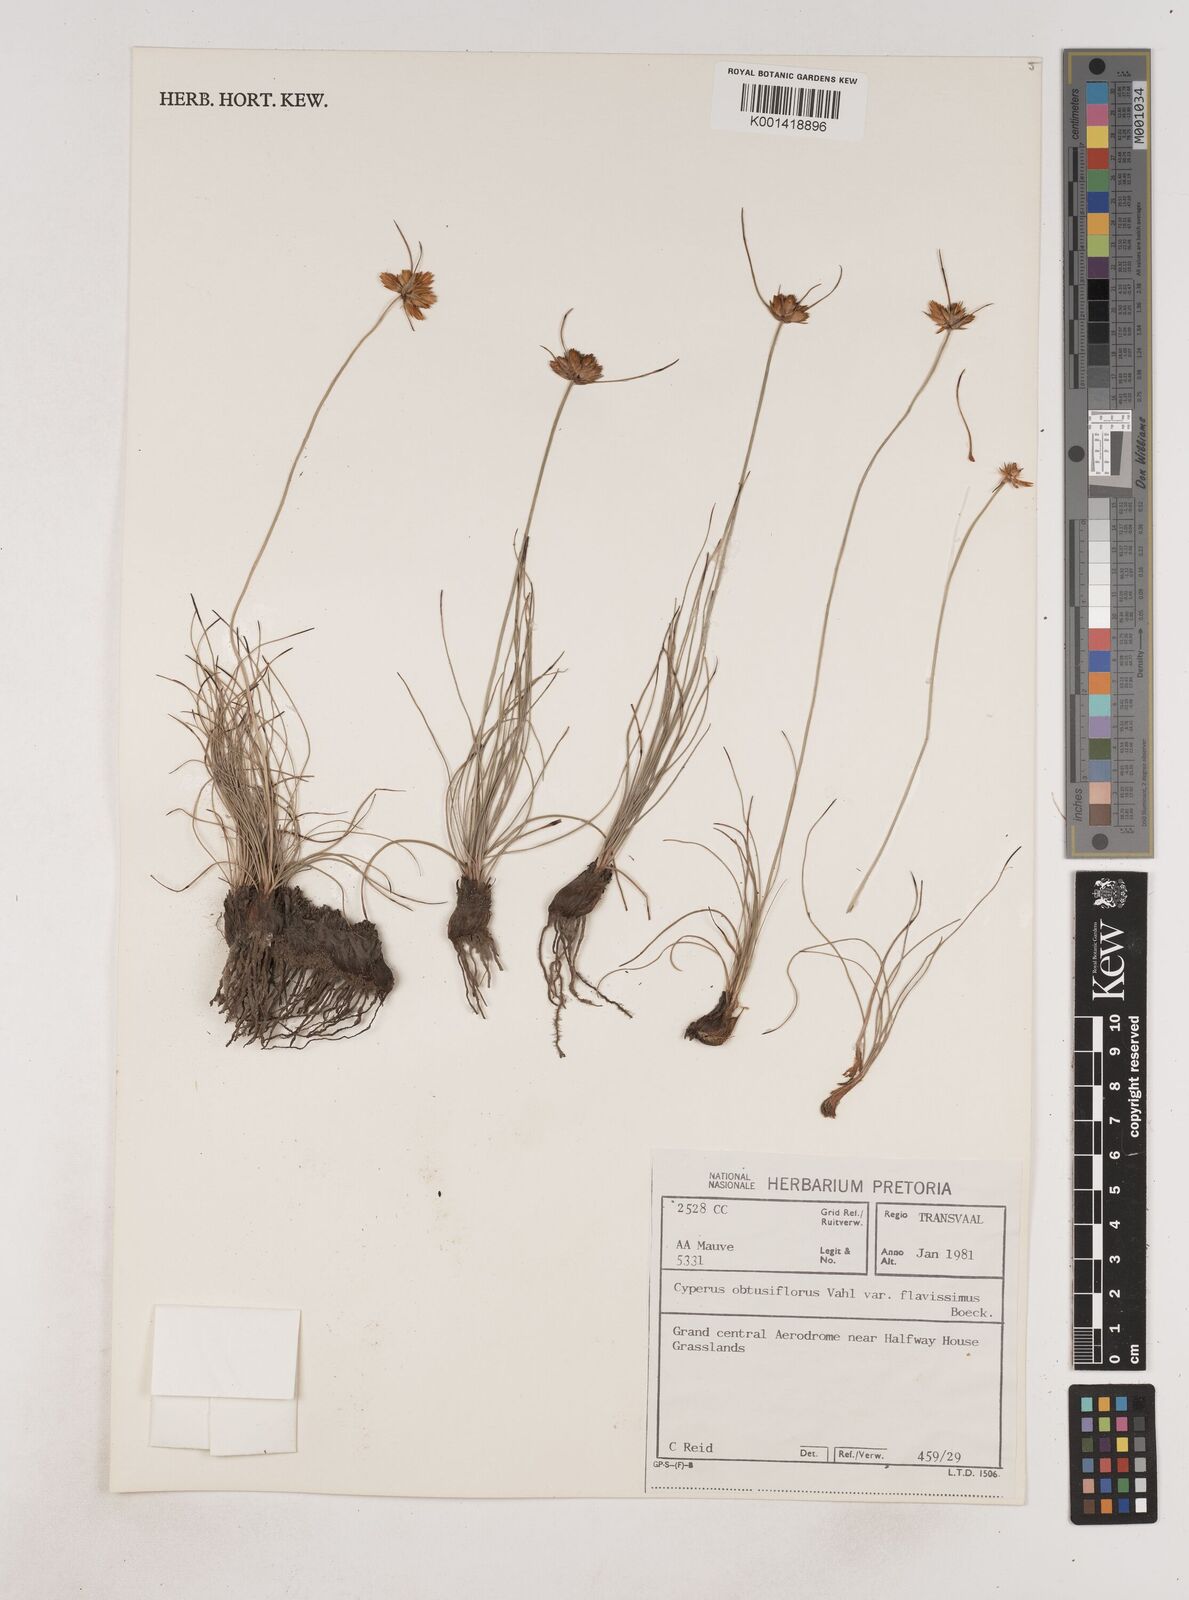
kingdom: Plantae
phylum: Tracheophyta
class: Liliopsida
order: Poales
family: Cyperaceae
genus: Cyperus
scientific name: Cyperus sphaerocephalus
